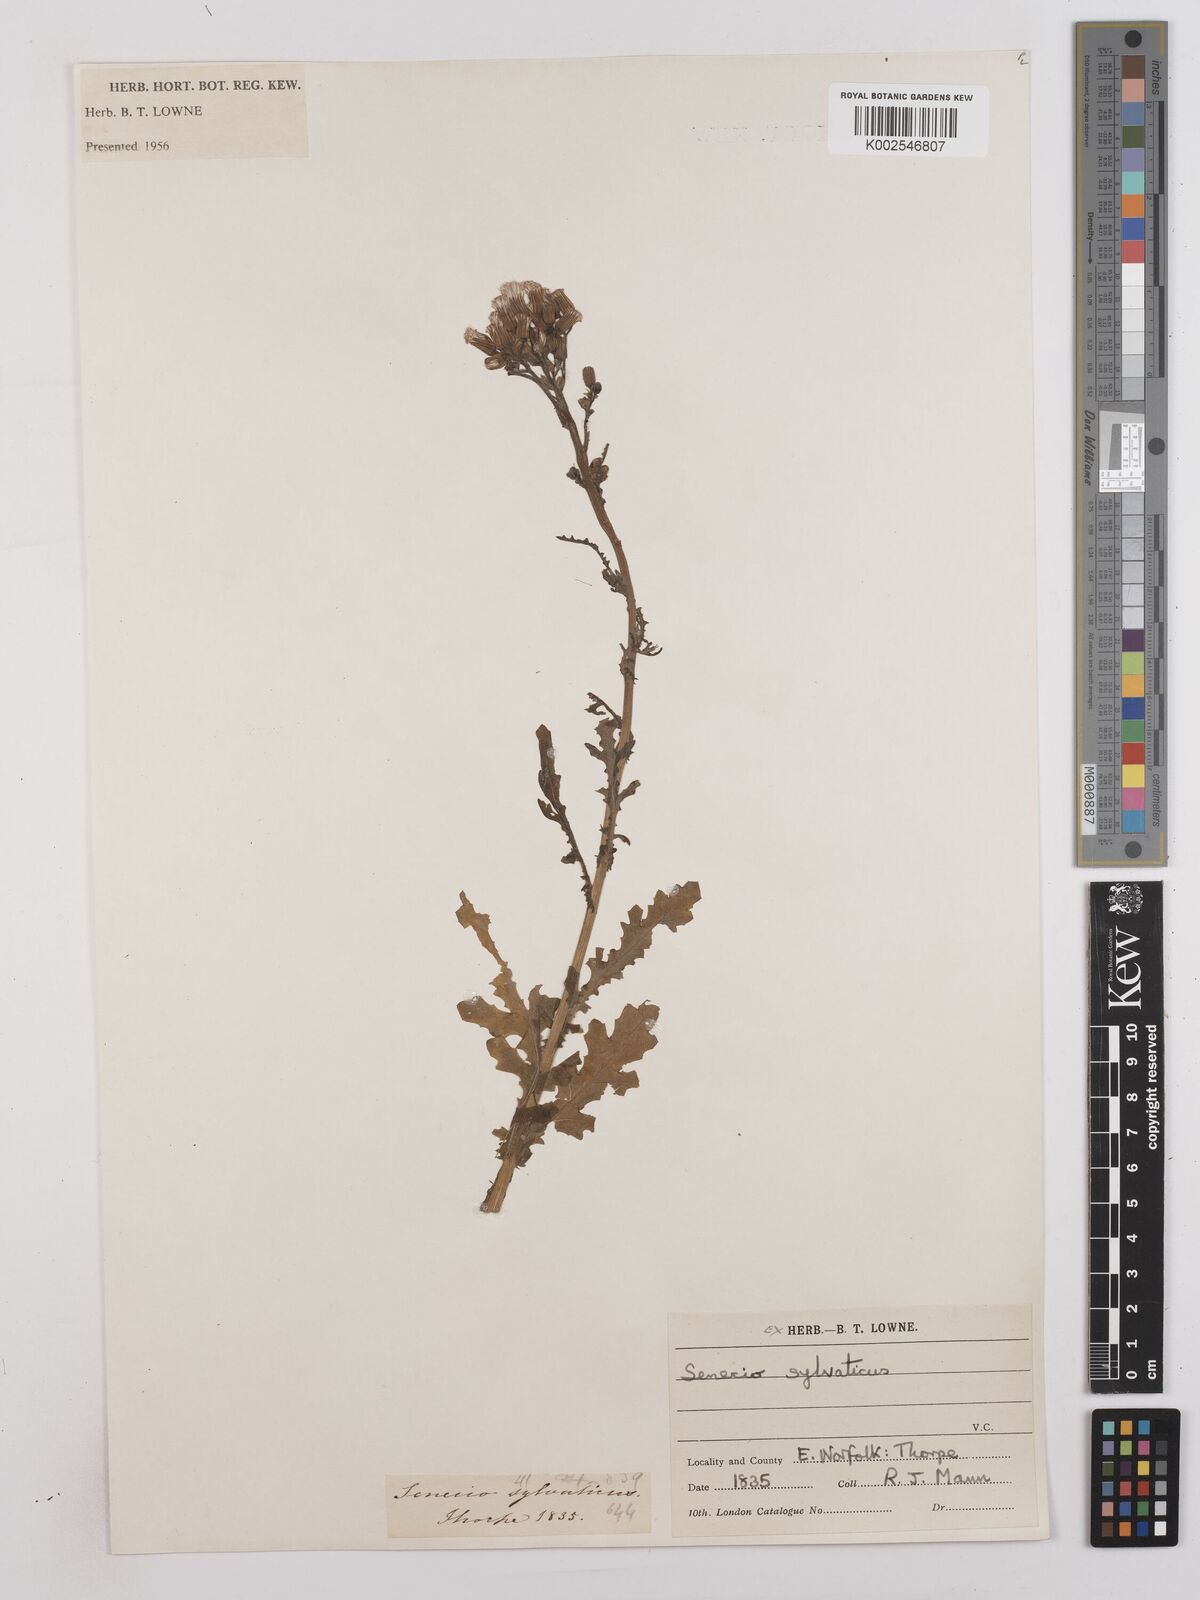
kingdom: Plantae
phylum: Tracheophyta
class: Magnoliopsida
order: Asterales
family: Asteraceae
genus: Senecio
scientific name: Senecio sylvaticus
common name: Woodland ragwort
